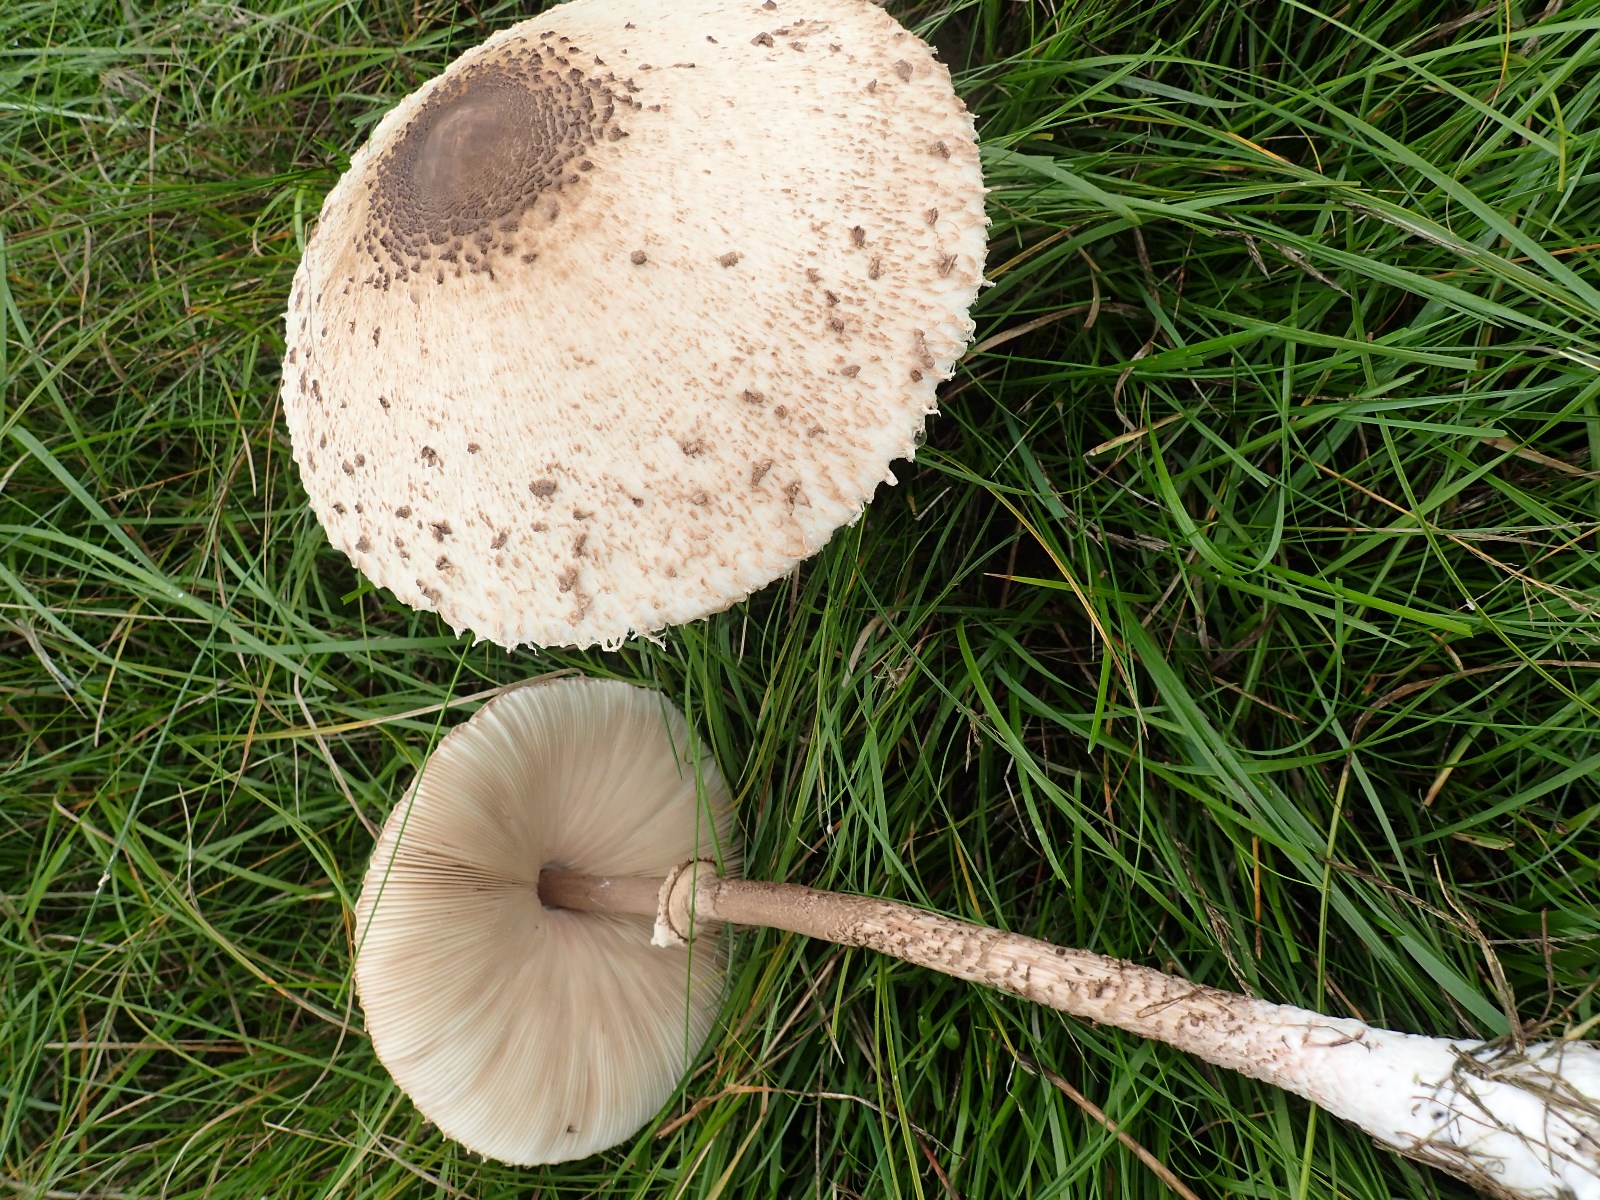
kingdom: Fungi
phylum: Basidiomycota
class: Agaricomycetes
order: Agaricales
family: Agaricaceae
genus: Macrolepiota
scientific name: Macrolepiota procera
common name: stor kæmpeparasolhat
